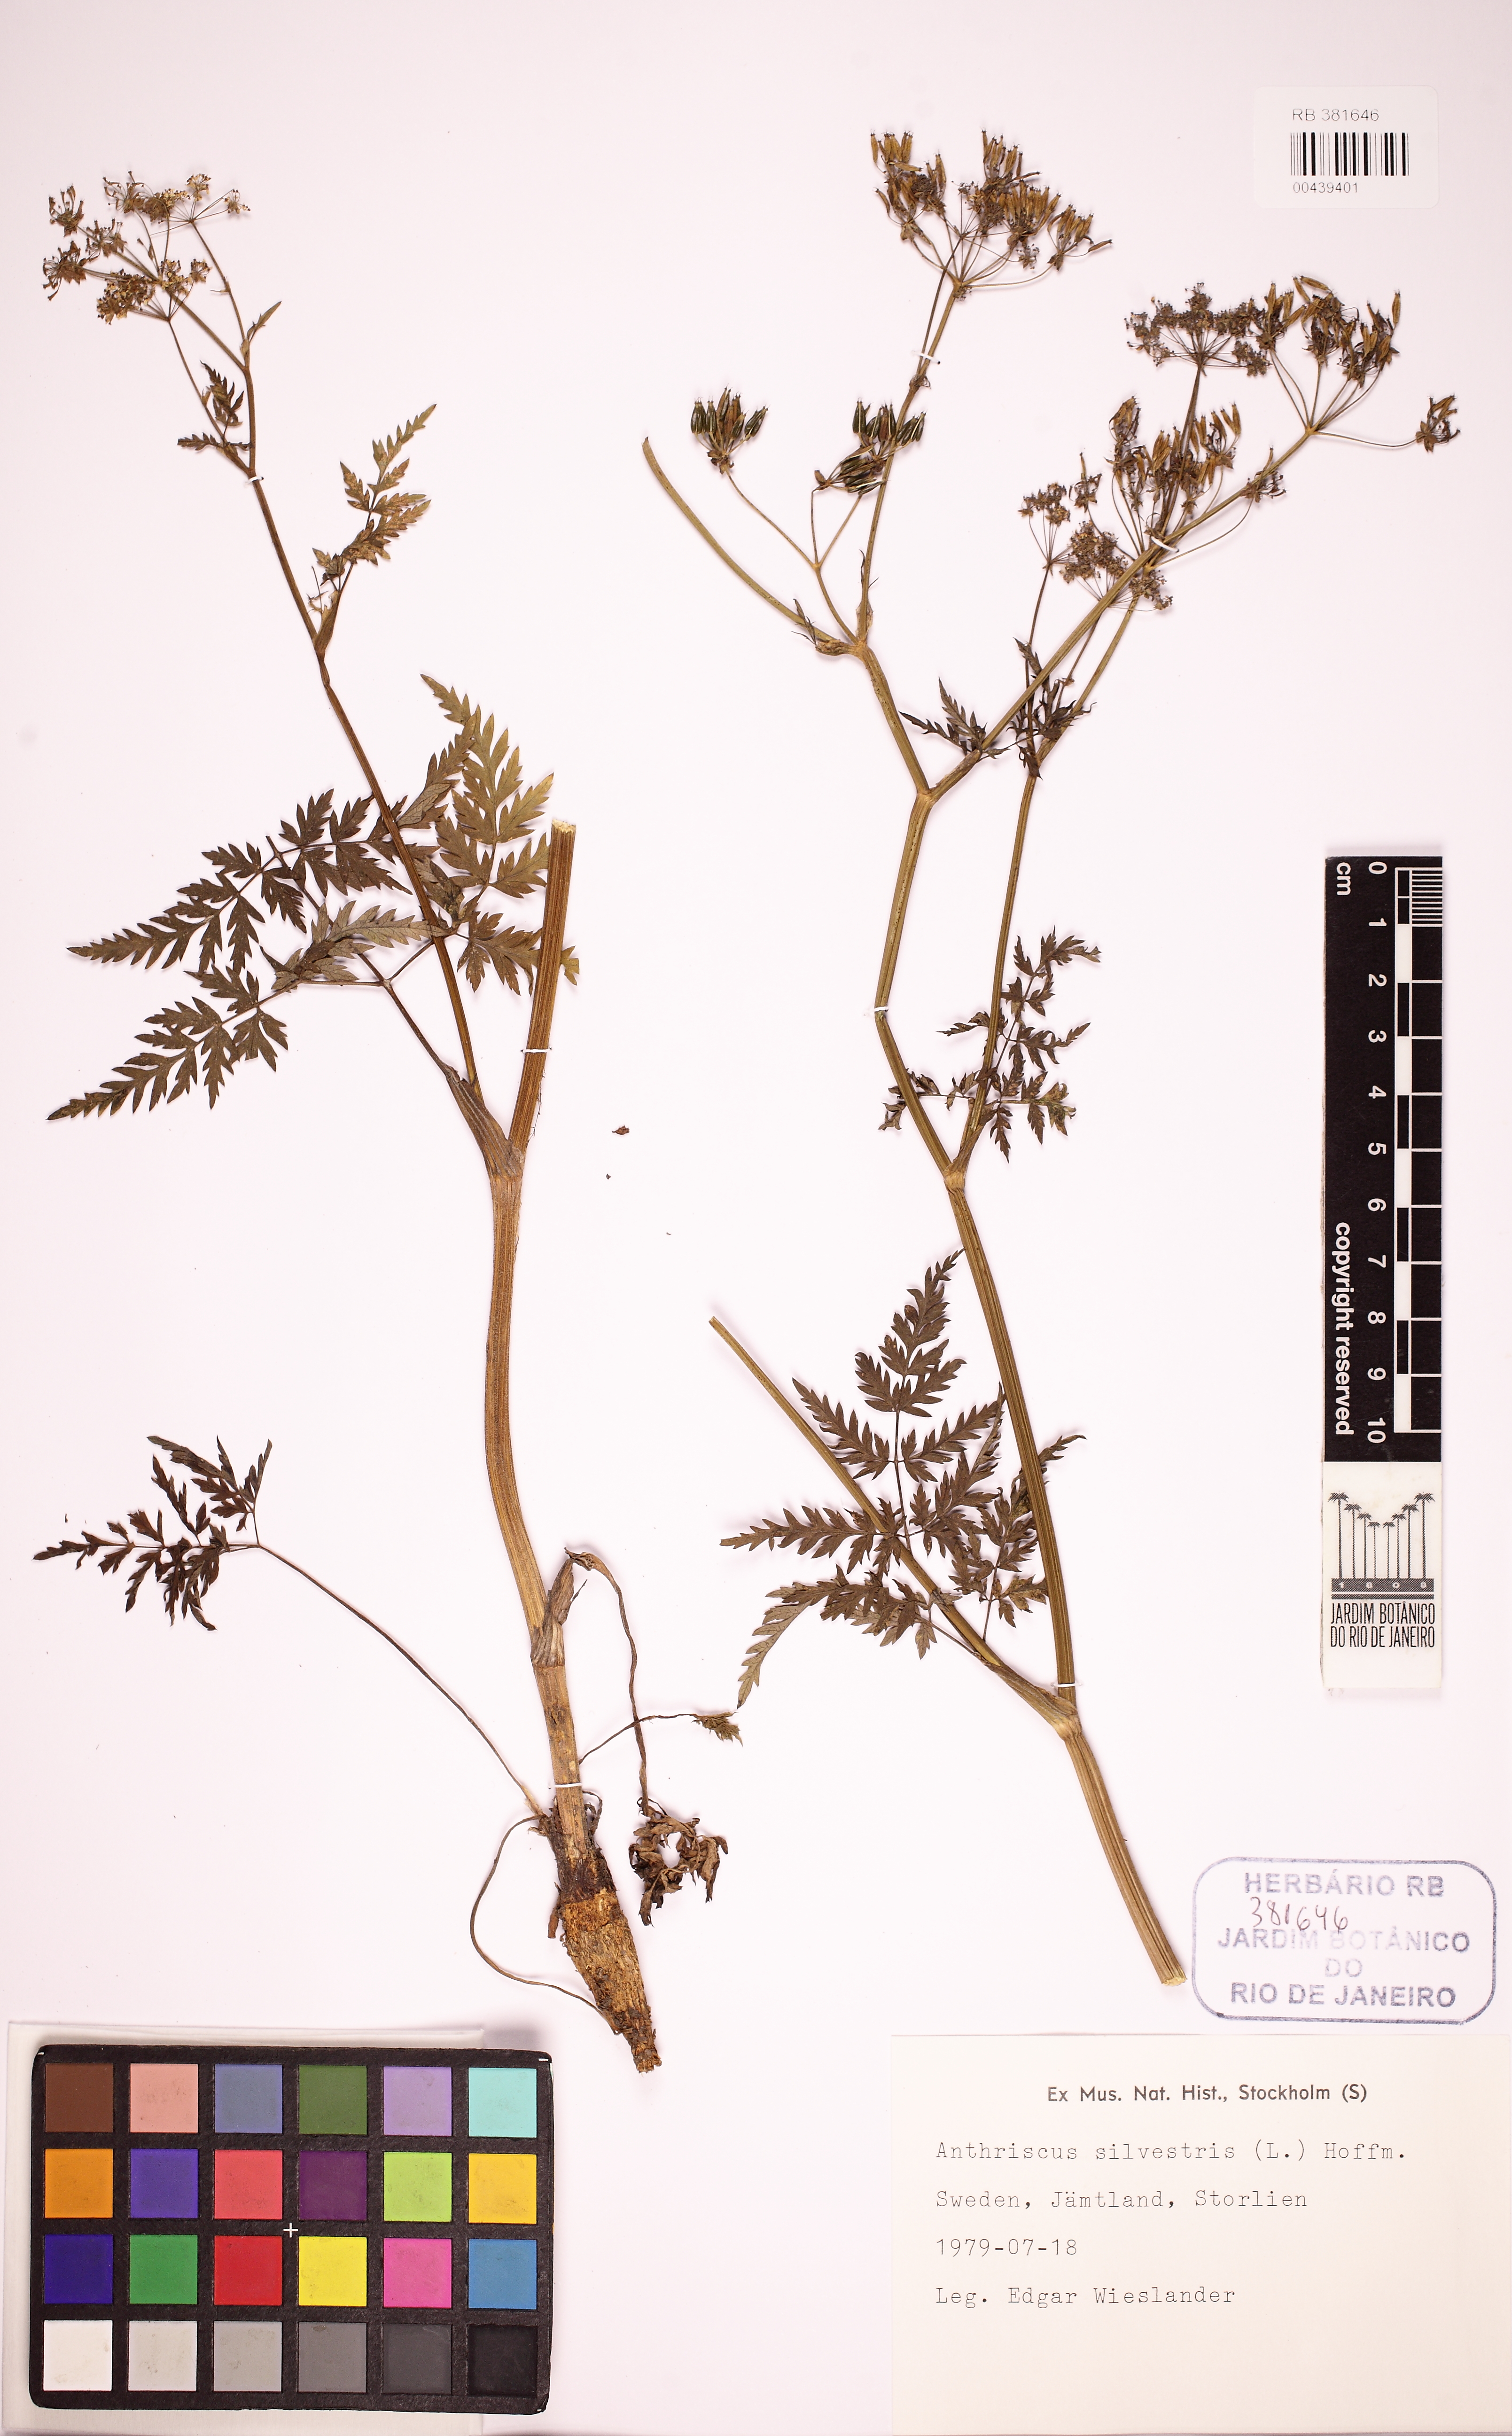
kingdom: Plantae
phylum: Tracheophyta
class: Magnoliopsida
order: Apiales
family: Apiaceae
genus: Anthriscus
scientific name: Anthriscus sylvestris
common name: Cow parsley
